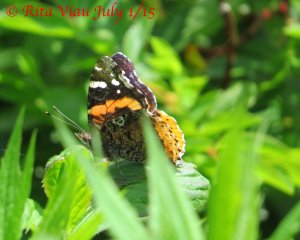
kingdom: Animalia
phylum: Arthropoda
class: Insecta
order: Lepidoptera
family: Nymphalidae
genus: Vanessa
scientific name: Vanessa atalanta
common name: Red Admiral
